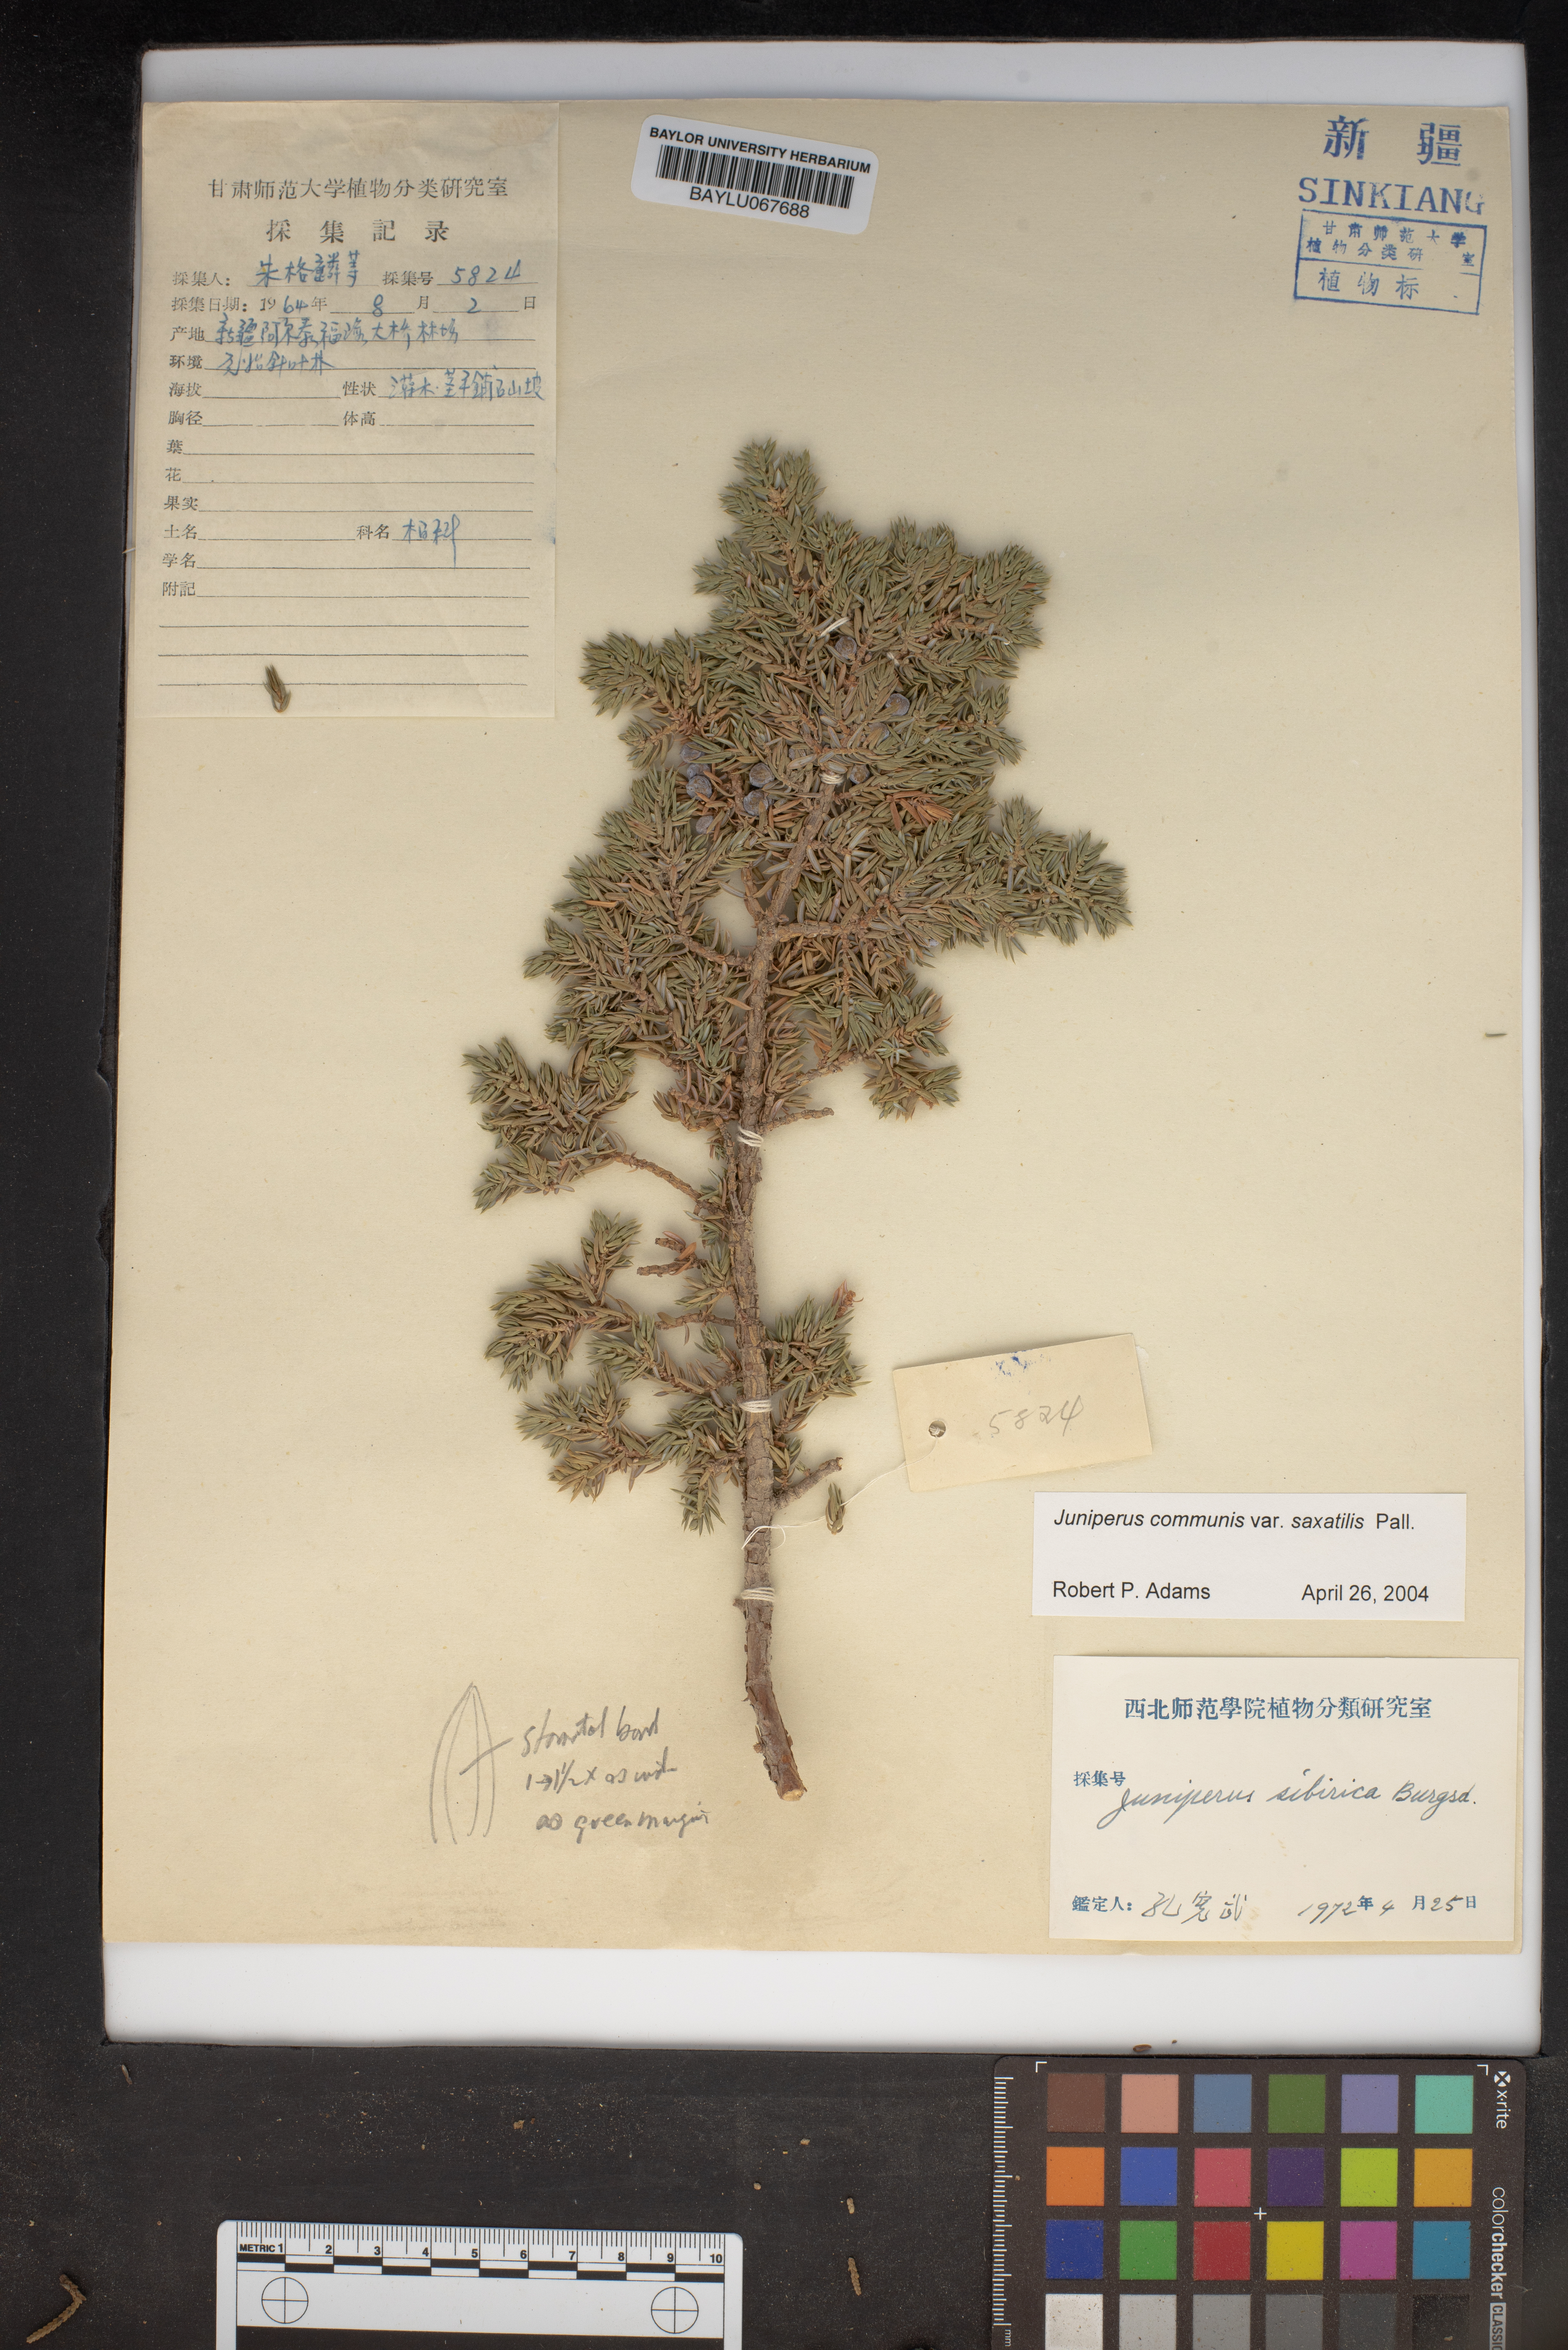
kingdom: Plantae
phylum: Tracheophyta
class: Pinopsida
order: Pinales
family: Cupressaceae
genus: Juniperus
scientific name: Juniperus communis
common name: Common juniper
